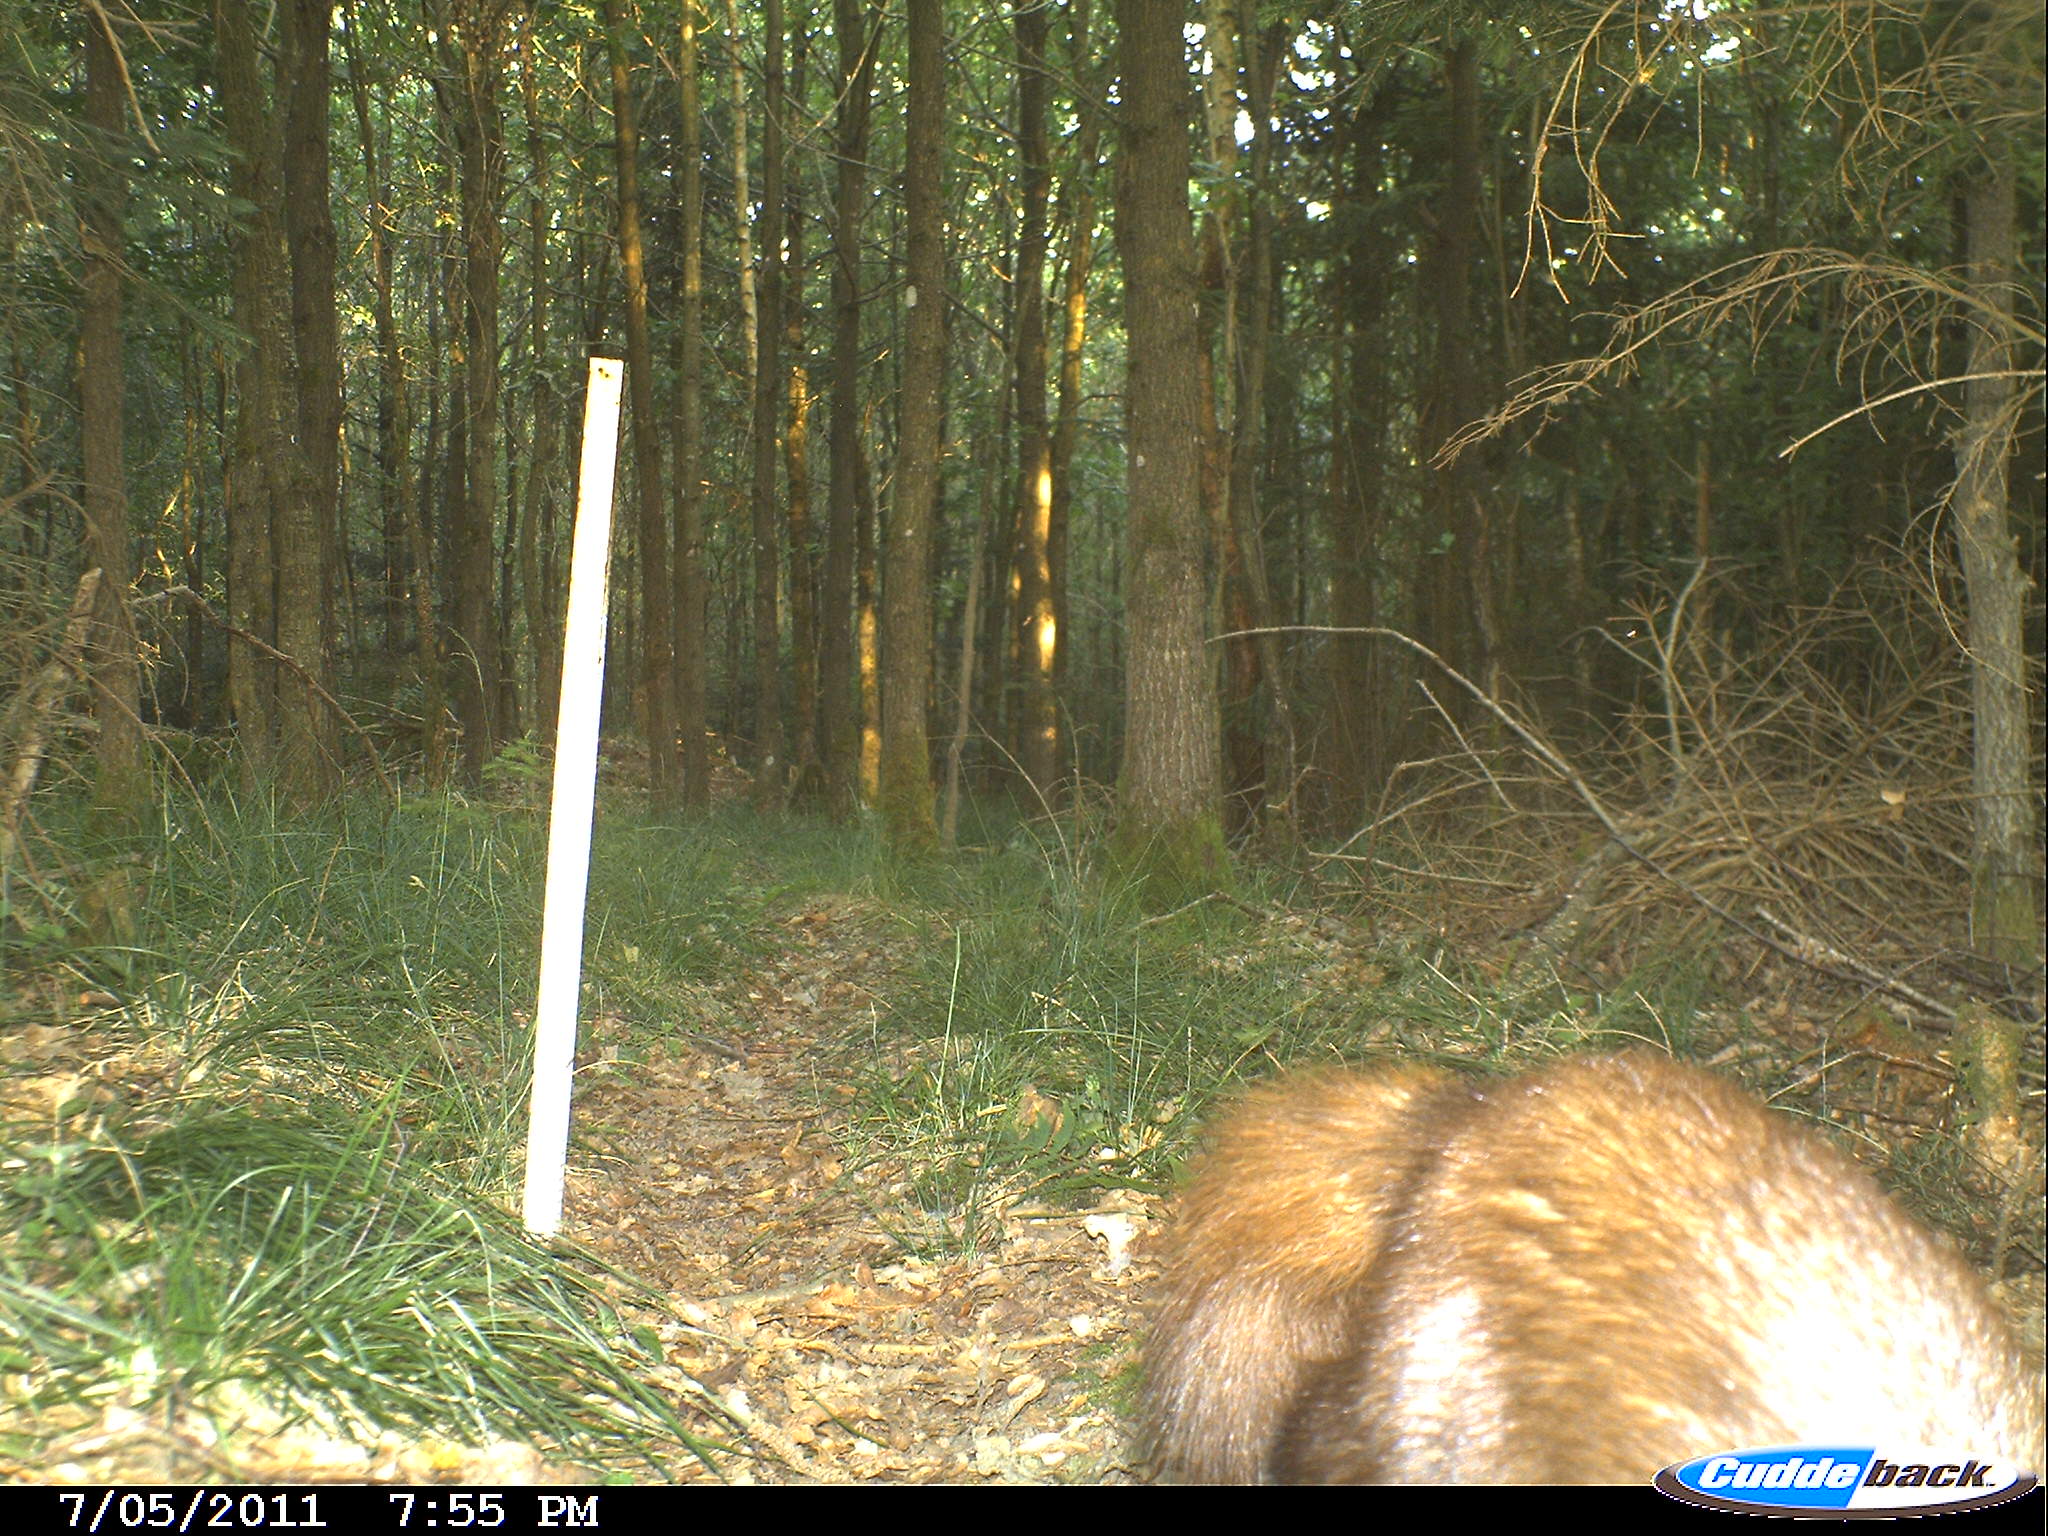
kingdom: Animalia
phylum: Chordata
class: Mammalia
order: Carnivora
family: Mustelidae
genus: Martes
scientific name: Martes
